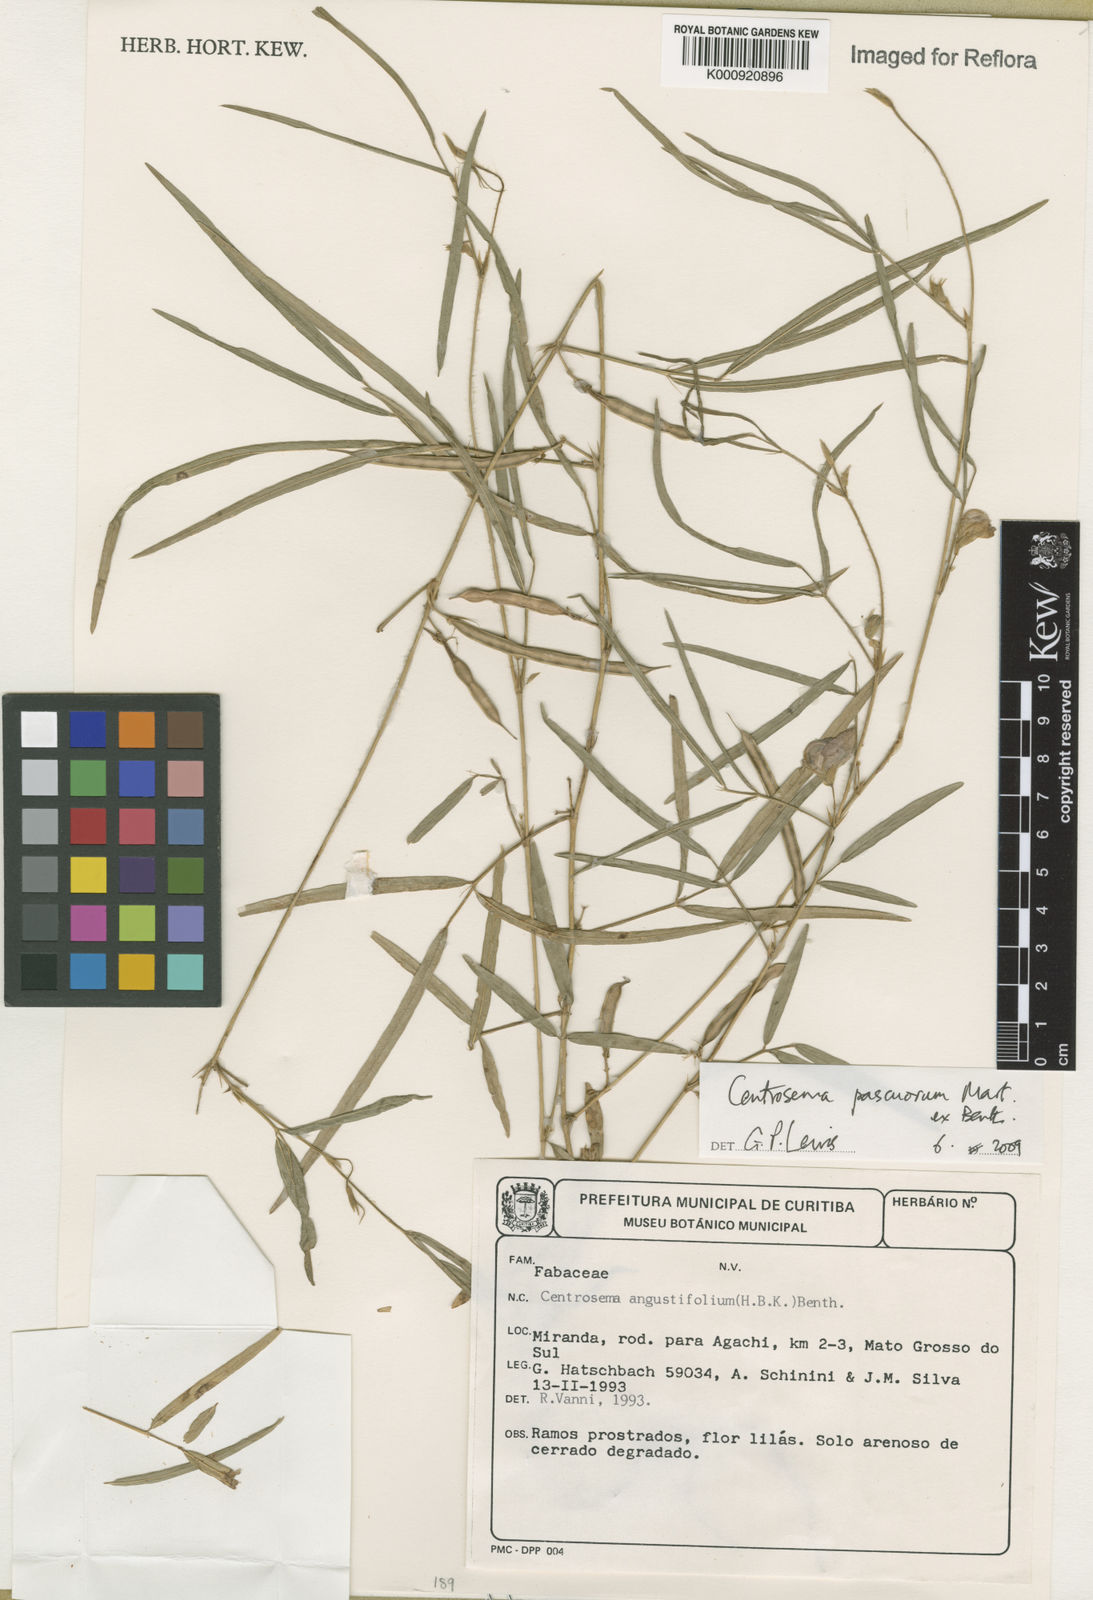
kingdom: Plantae
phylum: Tracheophyta
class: Magnoliopsida
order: Fabales
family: Fabaceae
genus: Centrosema
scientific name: Centrosema pascuorum
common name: Centurion
